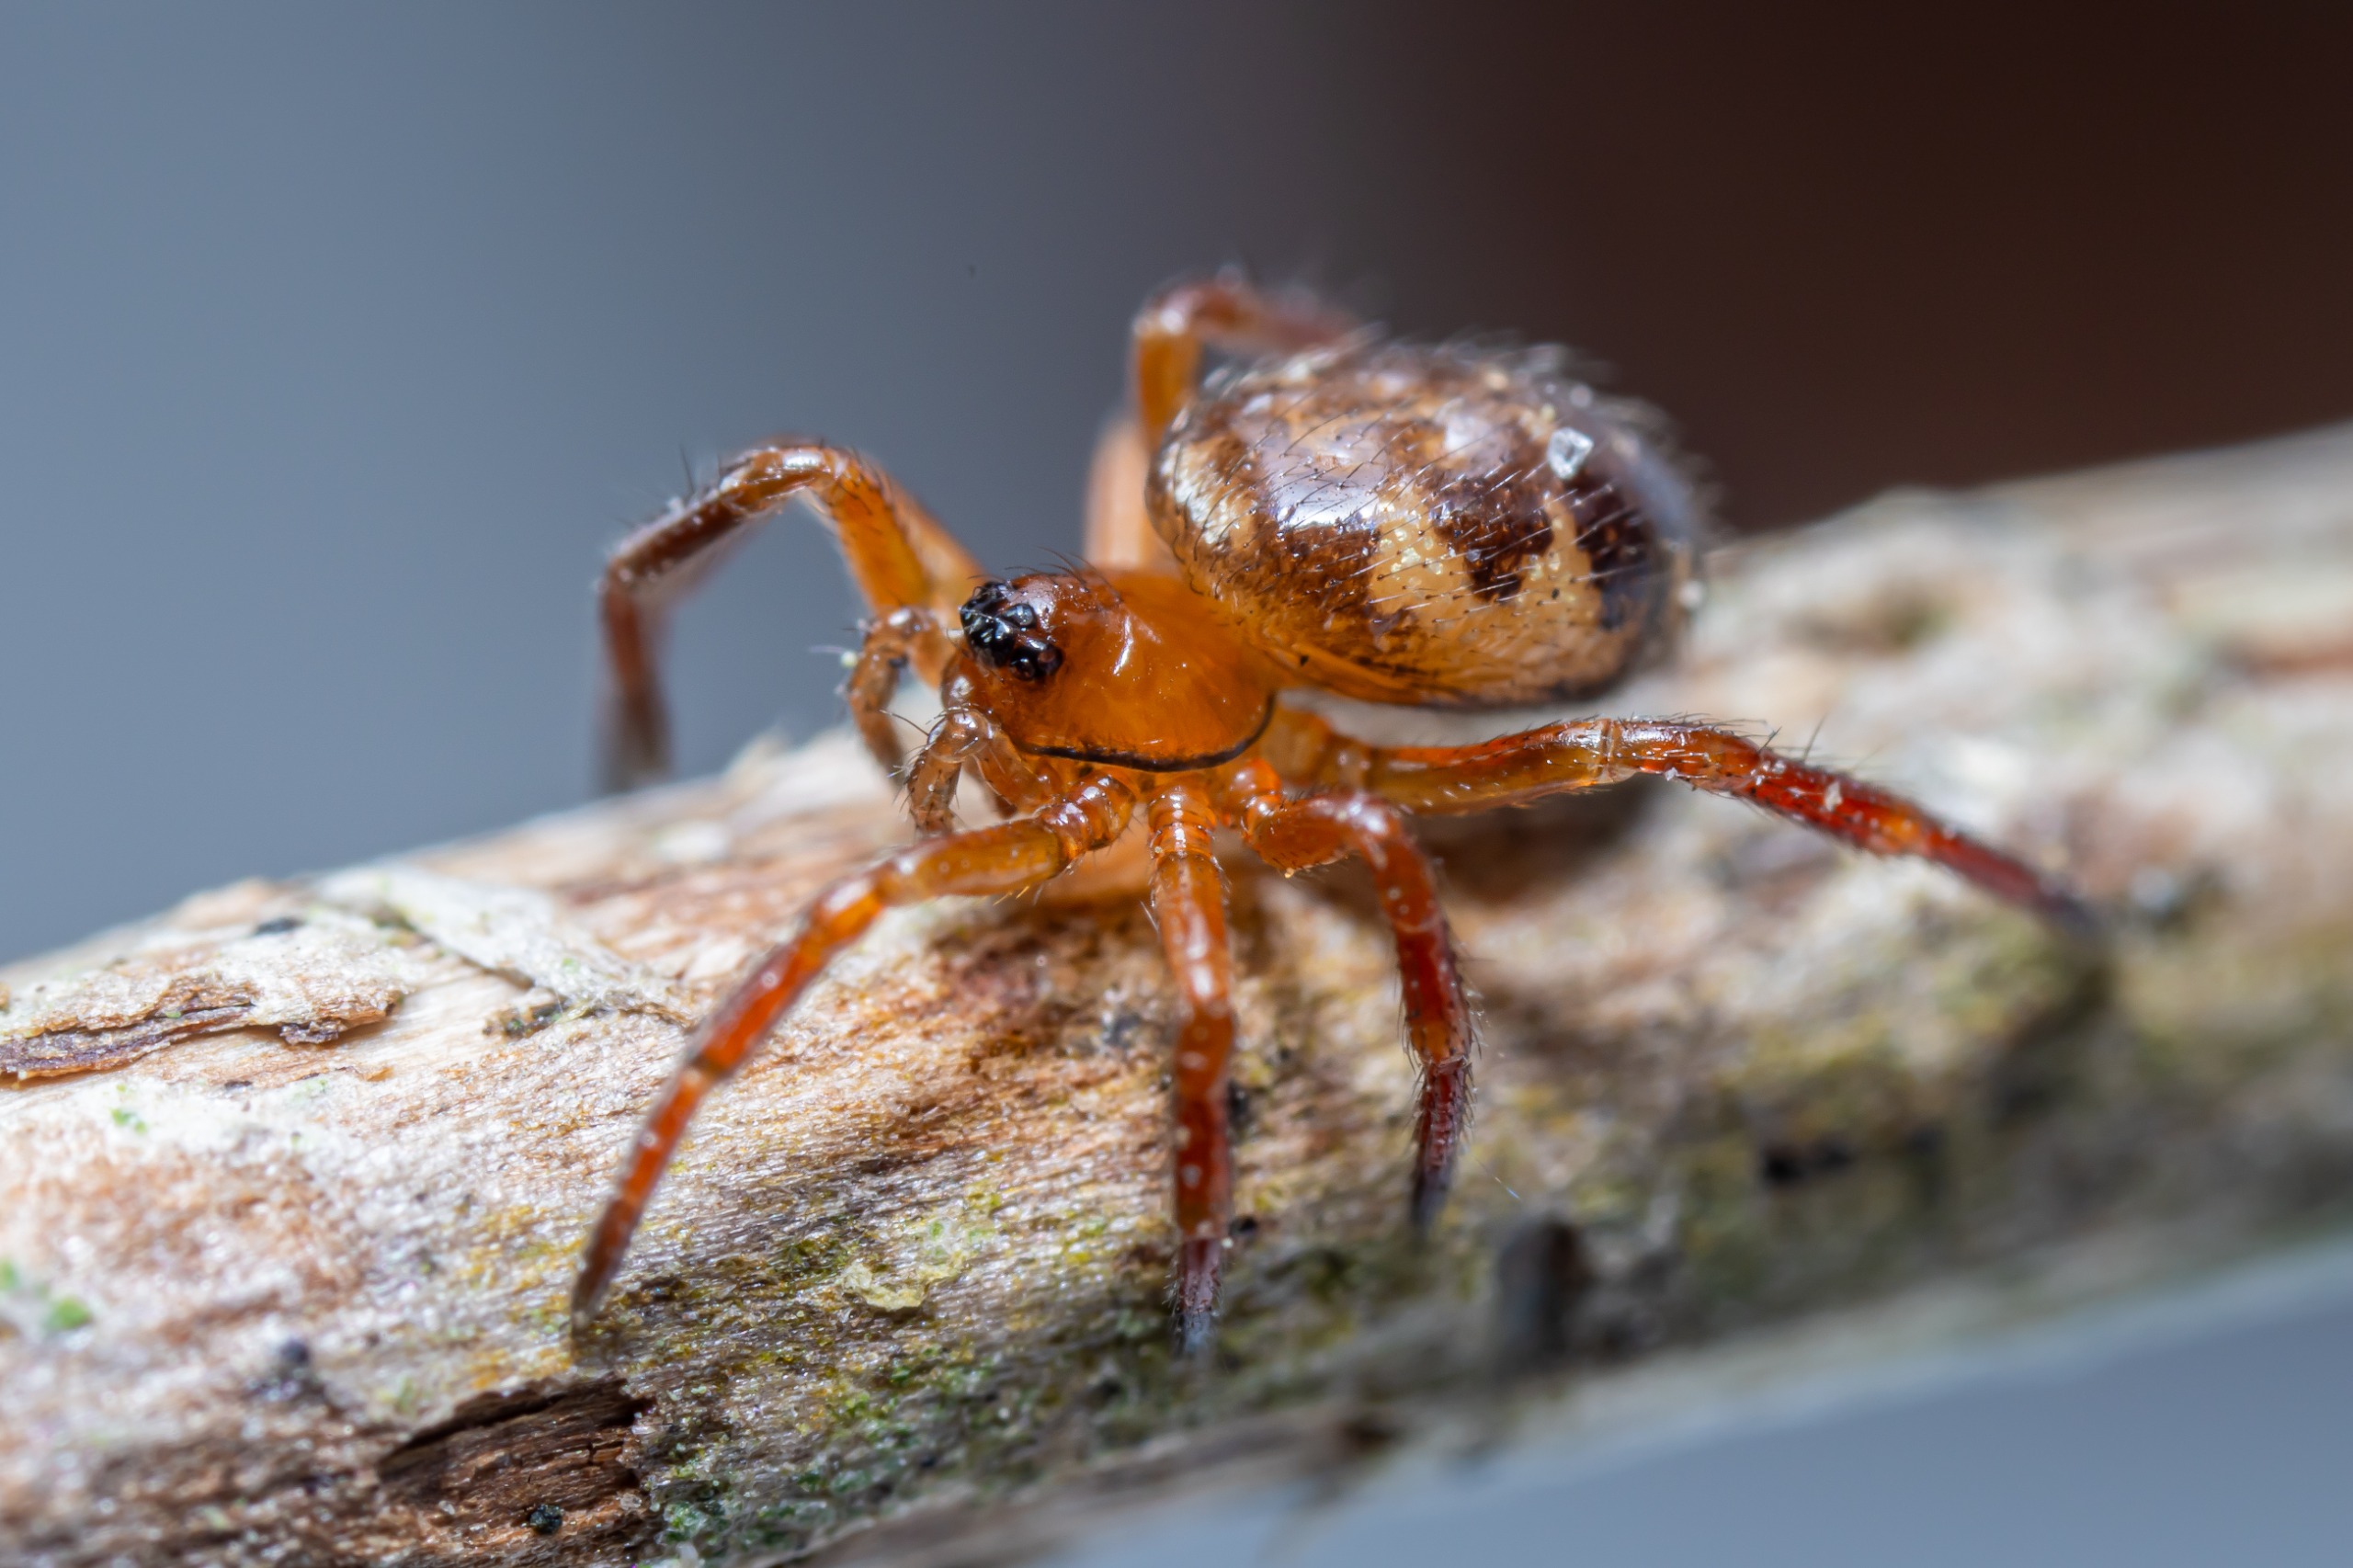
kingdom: Animalia
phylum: Arthropoda
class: Arachnida
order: Araneae
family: Theridiidae
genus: Euryopis
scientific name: Euryopis flavomaculata
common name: Plettet myrefanger
